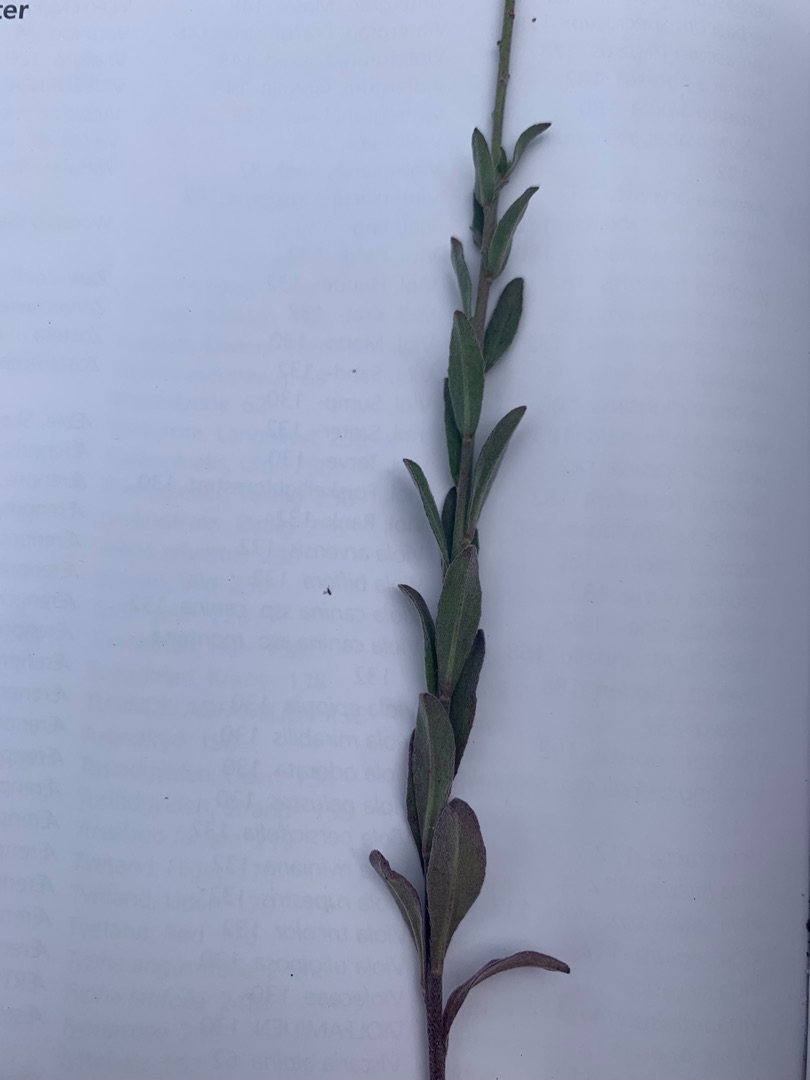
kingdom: Plantae
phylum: Tracheophyta
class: Magnoliopsida
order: Brassicales
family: Brassicaceae
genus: Berteroa
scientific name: Berteroa incana
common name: Kløvplade
